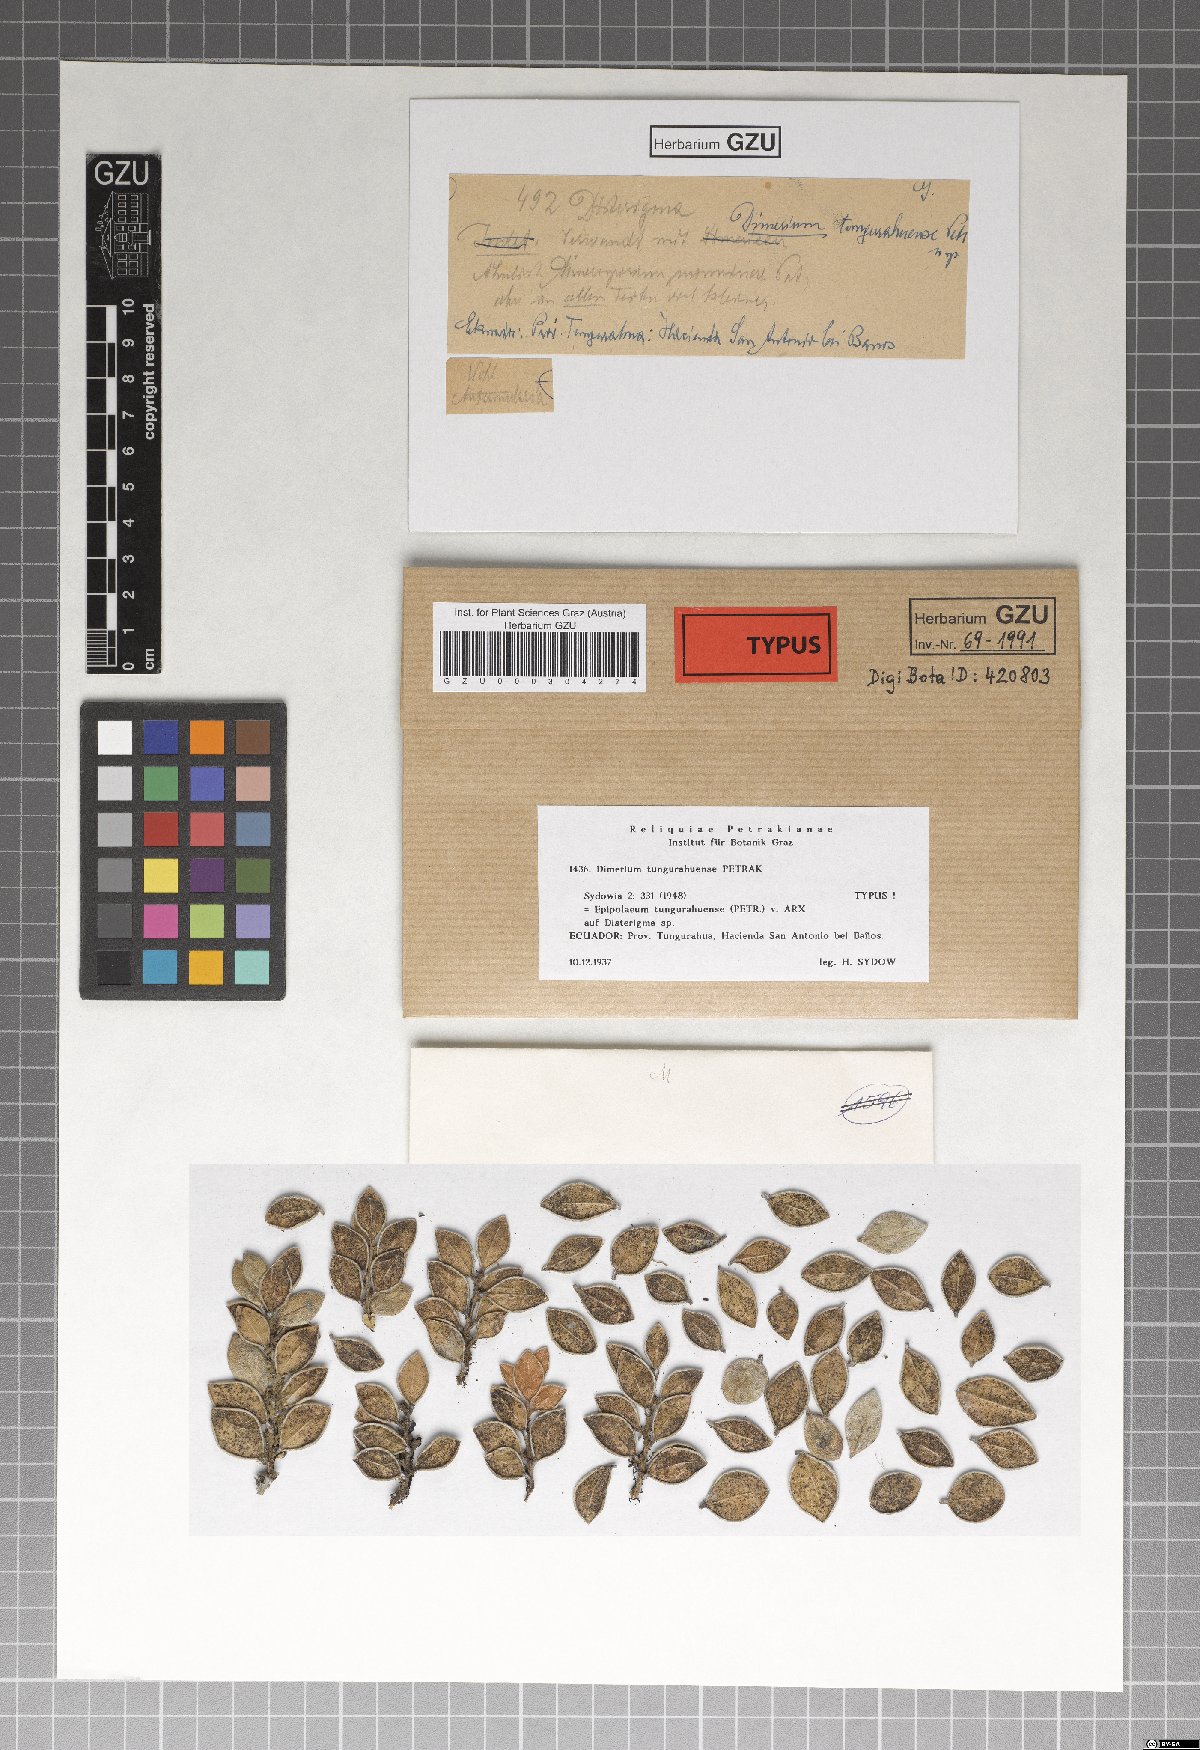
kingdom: Fungi
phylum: Ascomycota
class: Dothideomycetes
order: Dothideales
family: Parodiopsidaceae
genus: Dimerium
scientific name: Dimerium tungurahuense
